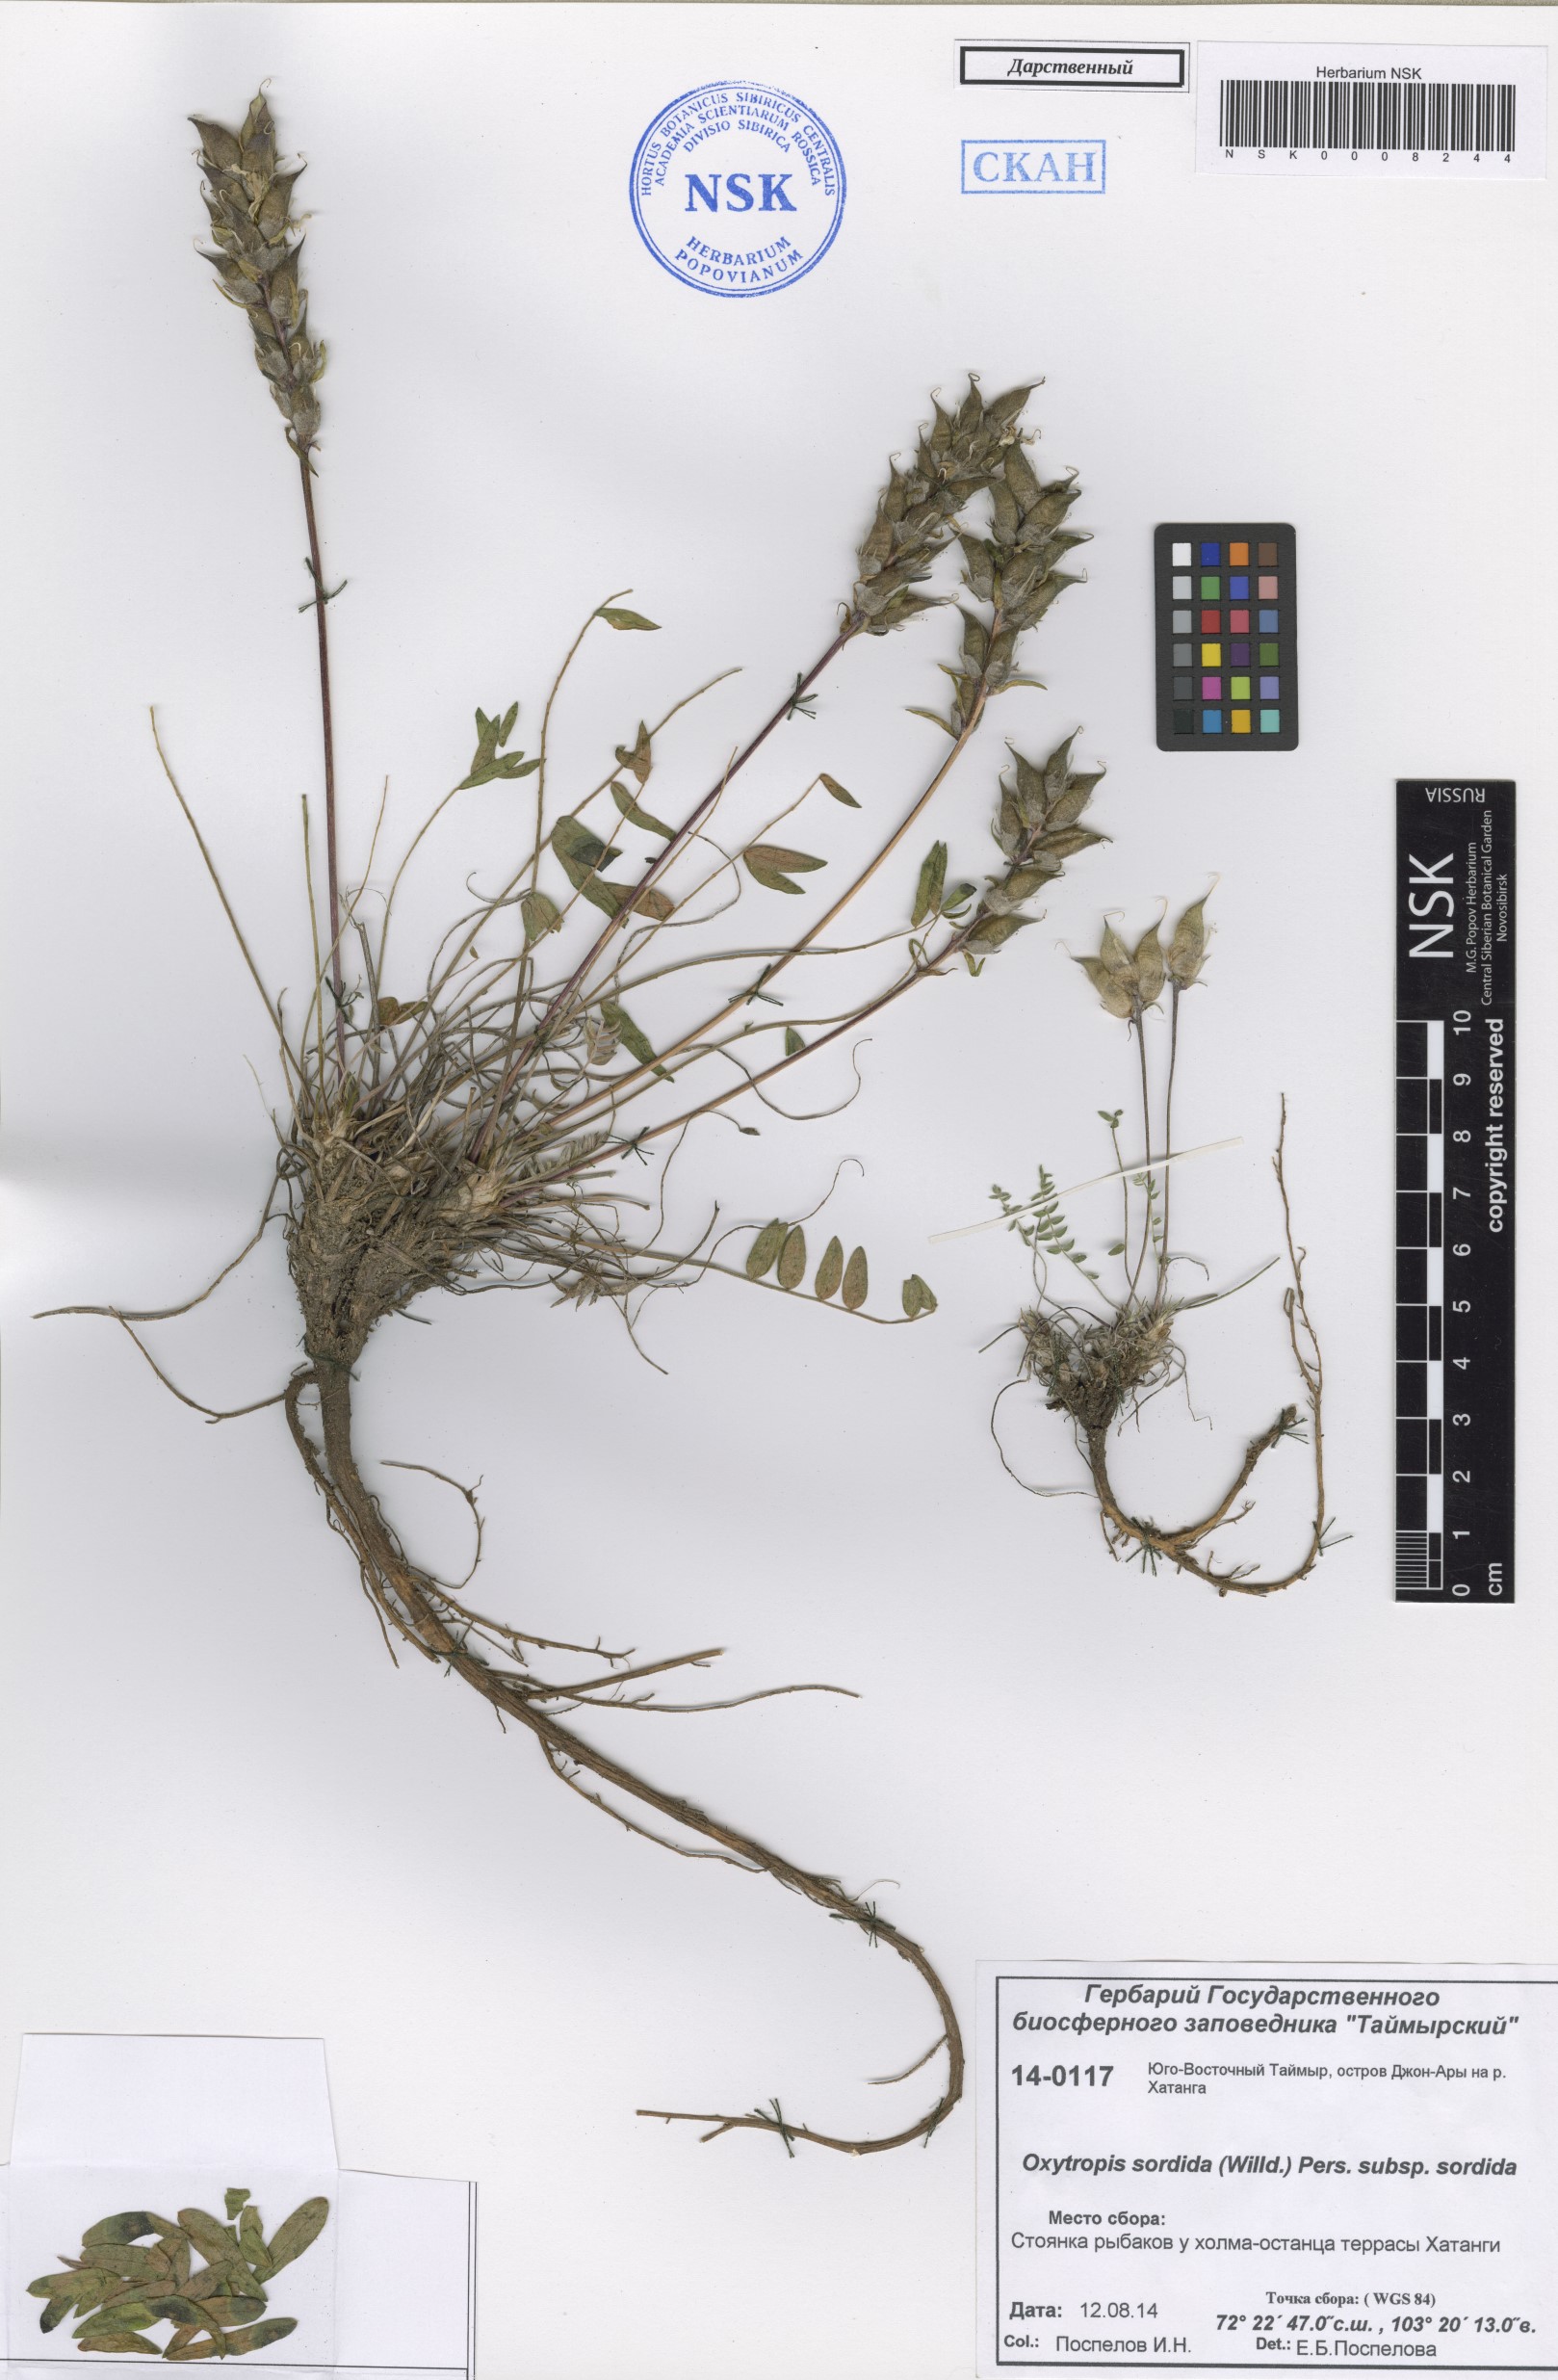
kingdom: Plantae
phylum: Tracheophyta
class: Magnoliopsida
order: Fabales
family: Fabaceae
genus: Oxytropis
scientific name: Oxytropis sordida
